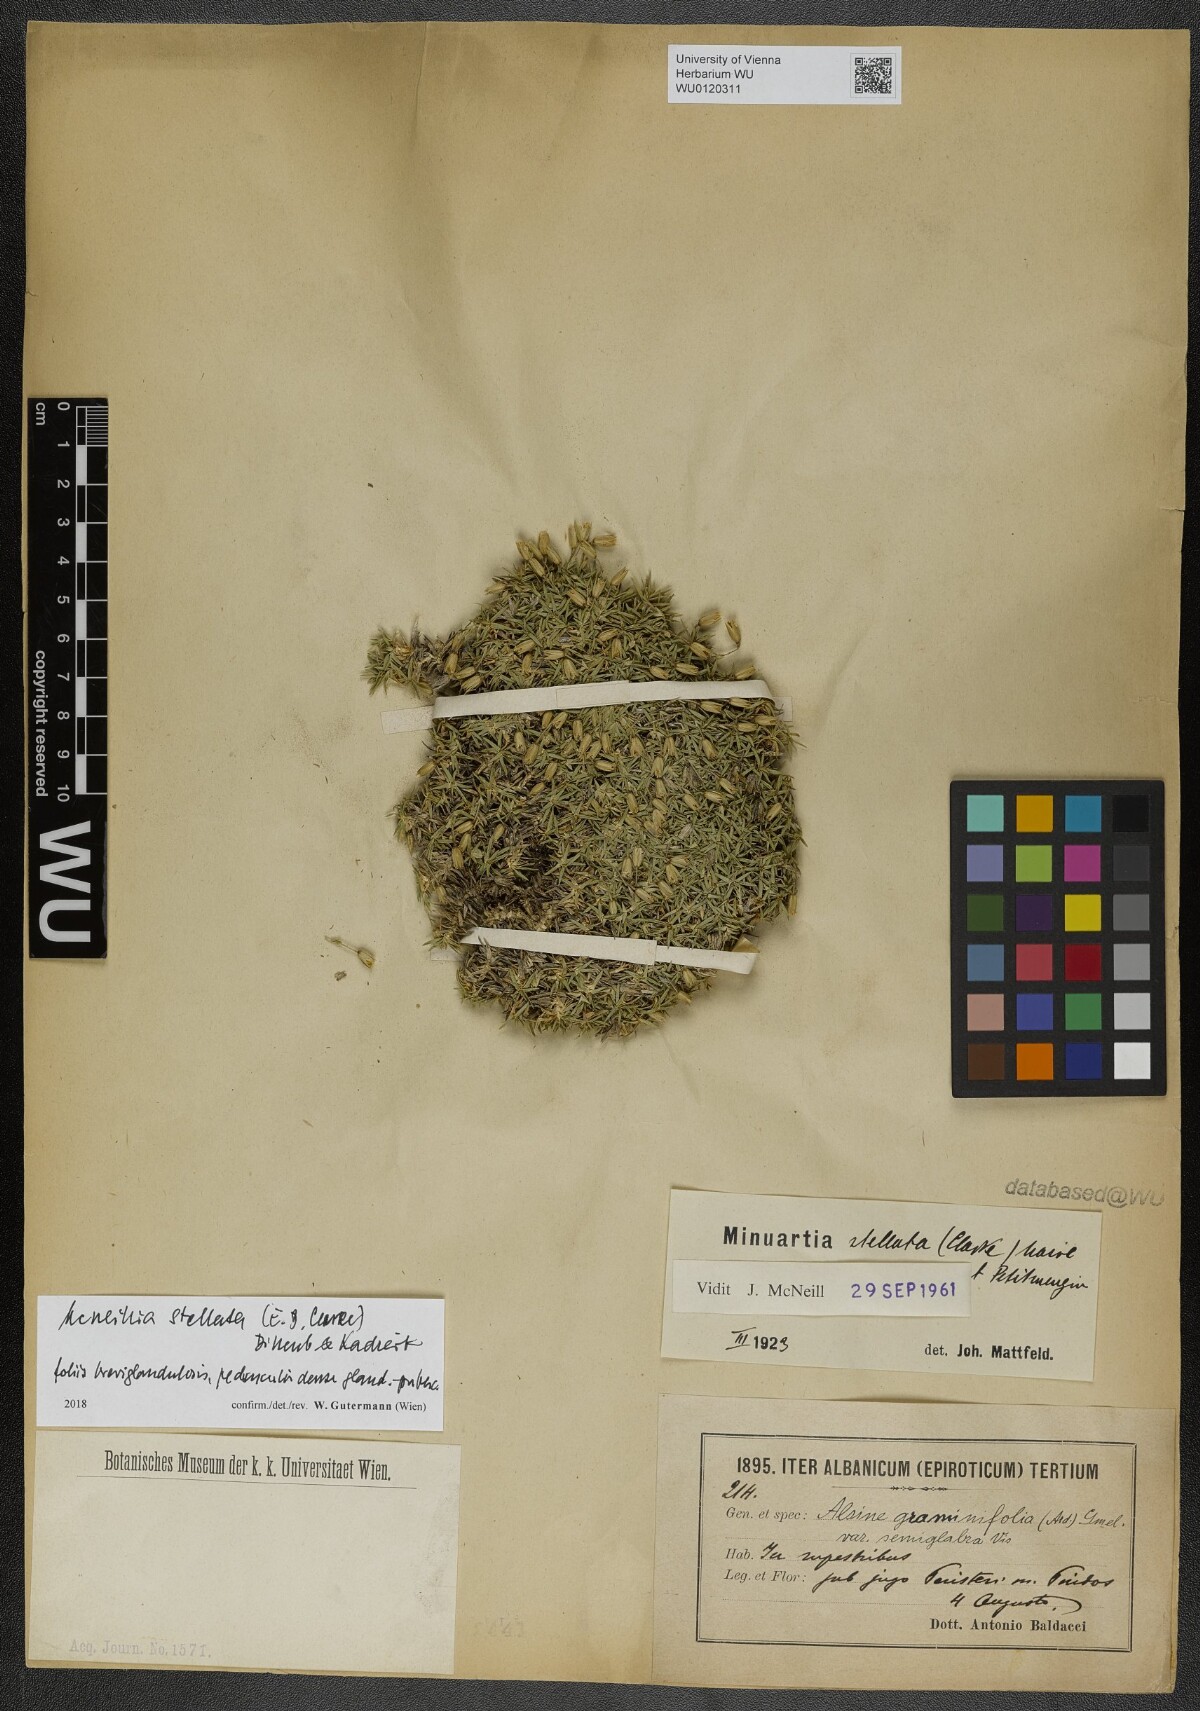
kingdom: Plantae
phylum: Tracheophyta
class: Magnoliopsida
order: Caryophyllales
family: Caryophyllaceae
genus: Mcneillia
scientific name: Mcneillia stellata
